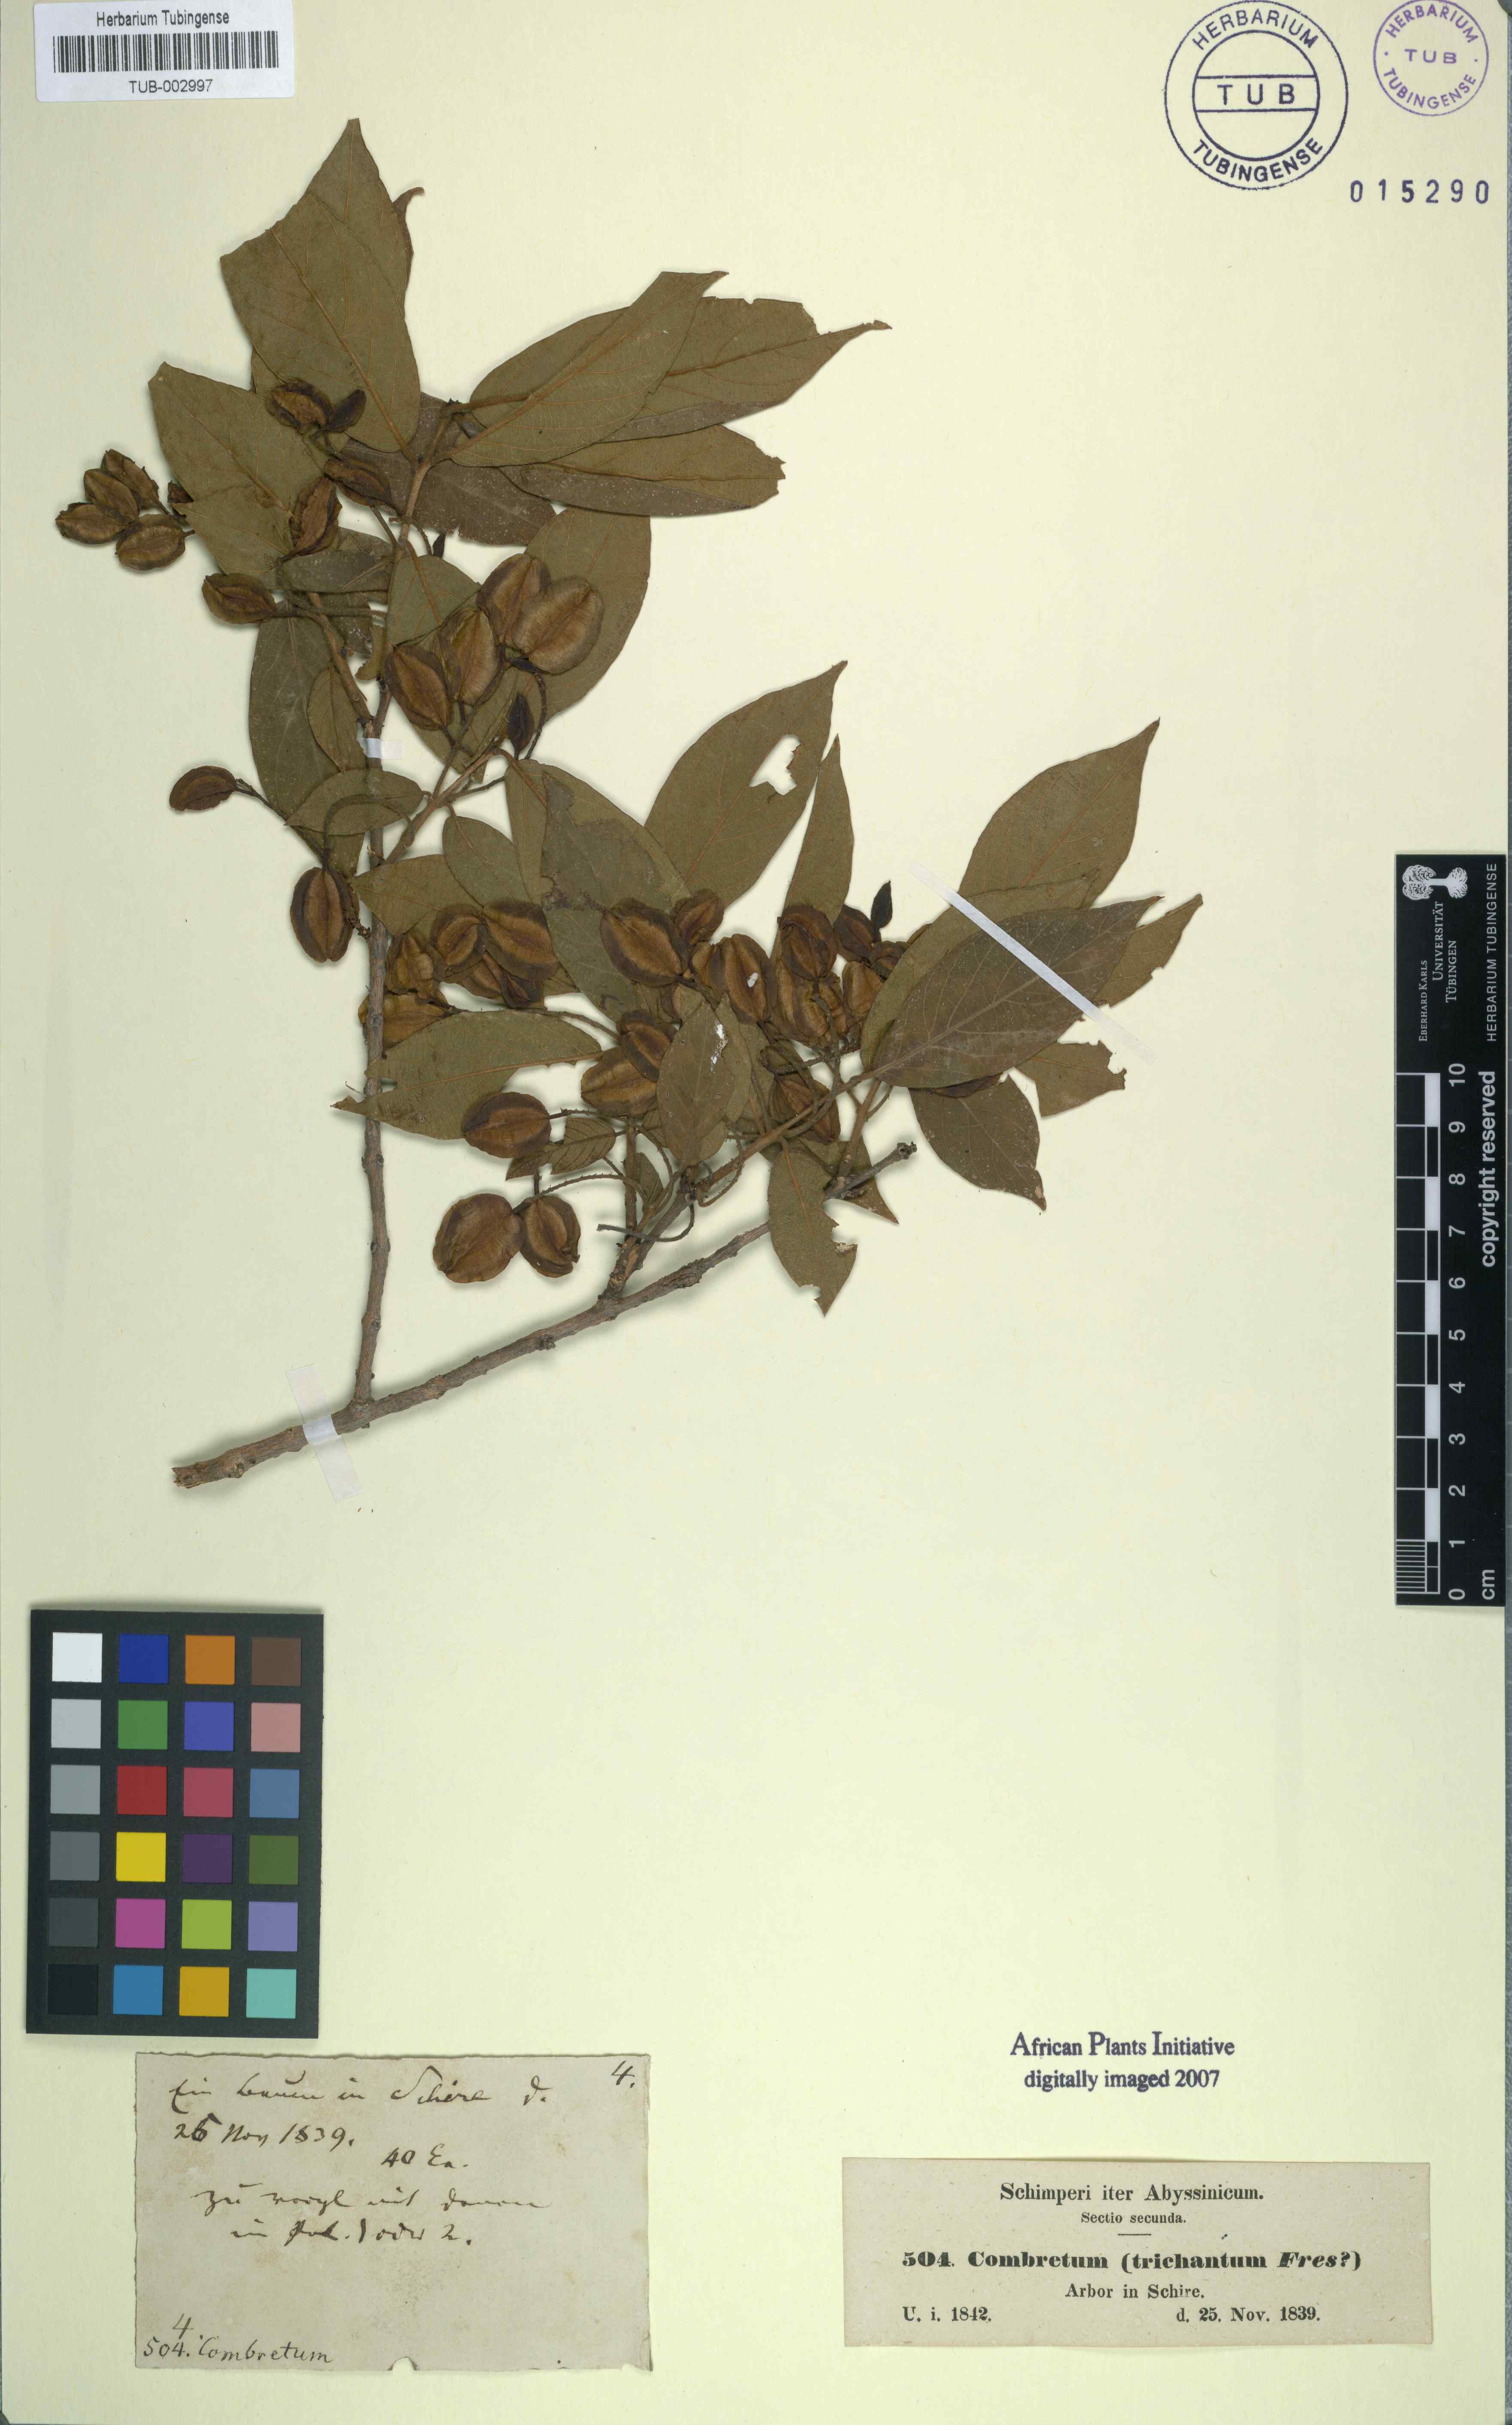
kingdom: Plantae
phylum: Tracheophyta
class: Magnoliopsida
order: Myrtales
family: Combretaceae
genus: Combretum
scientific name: Combretum molle
